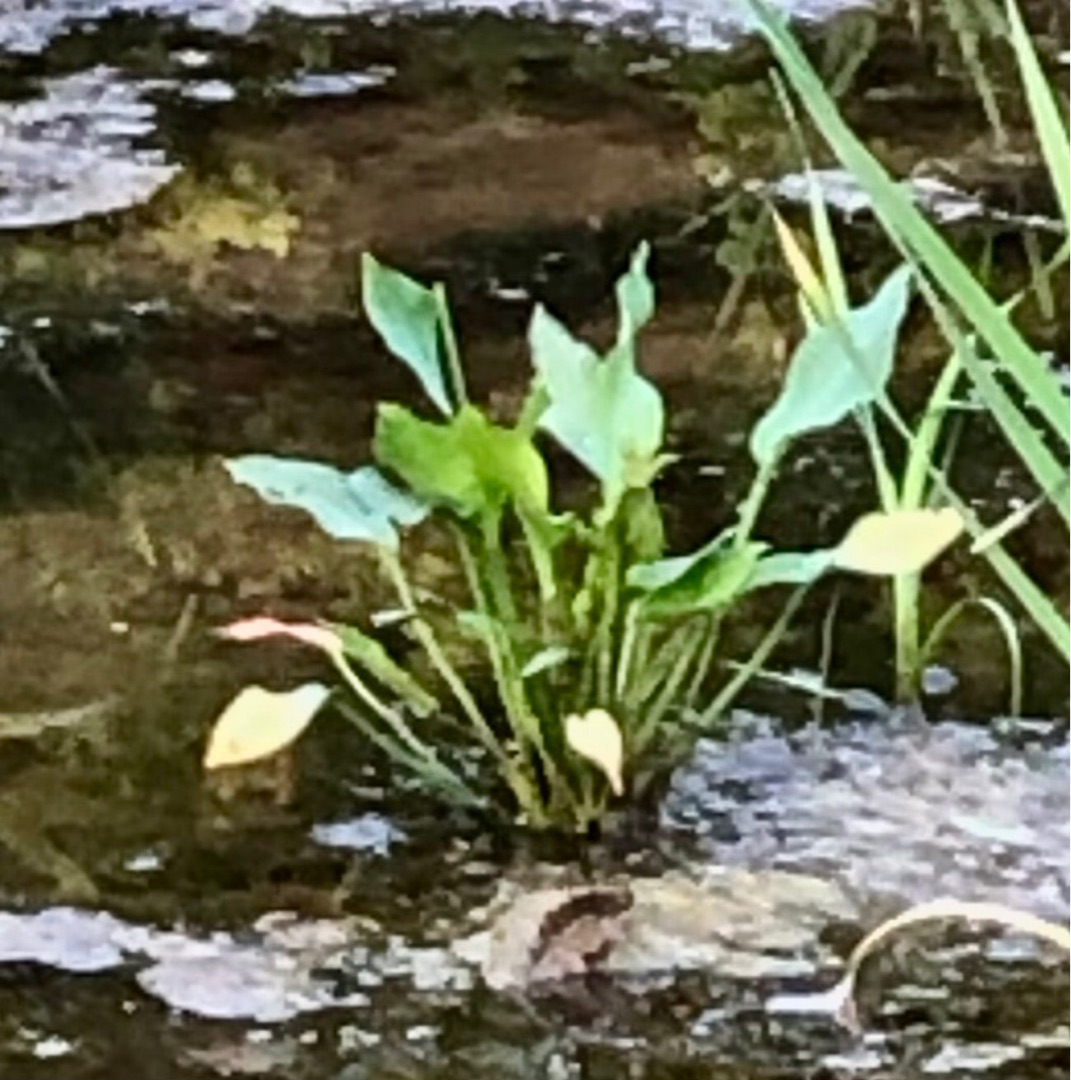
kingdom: Plantae
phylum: Tracheophyta
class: Liliopsida
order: Alismatales
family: Alismataceae
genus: Alisma
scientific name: Alisma plantago-aquatica
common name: Vejbred-skeblad
